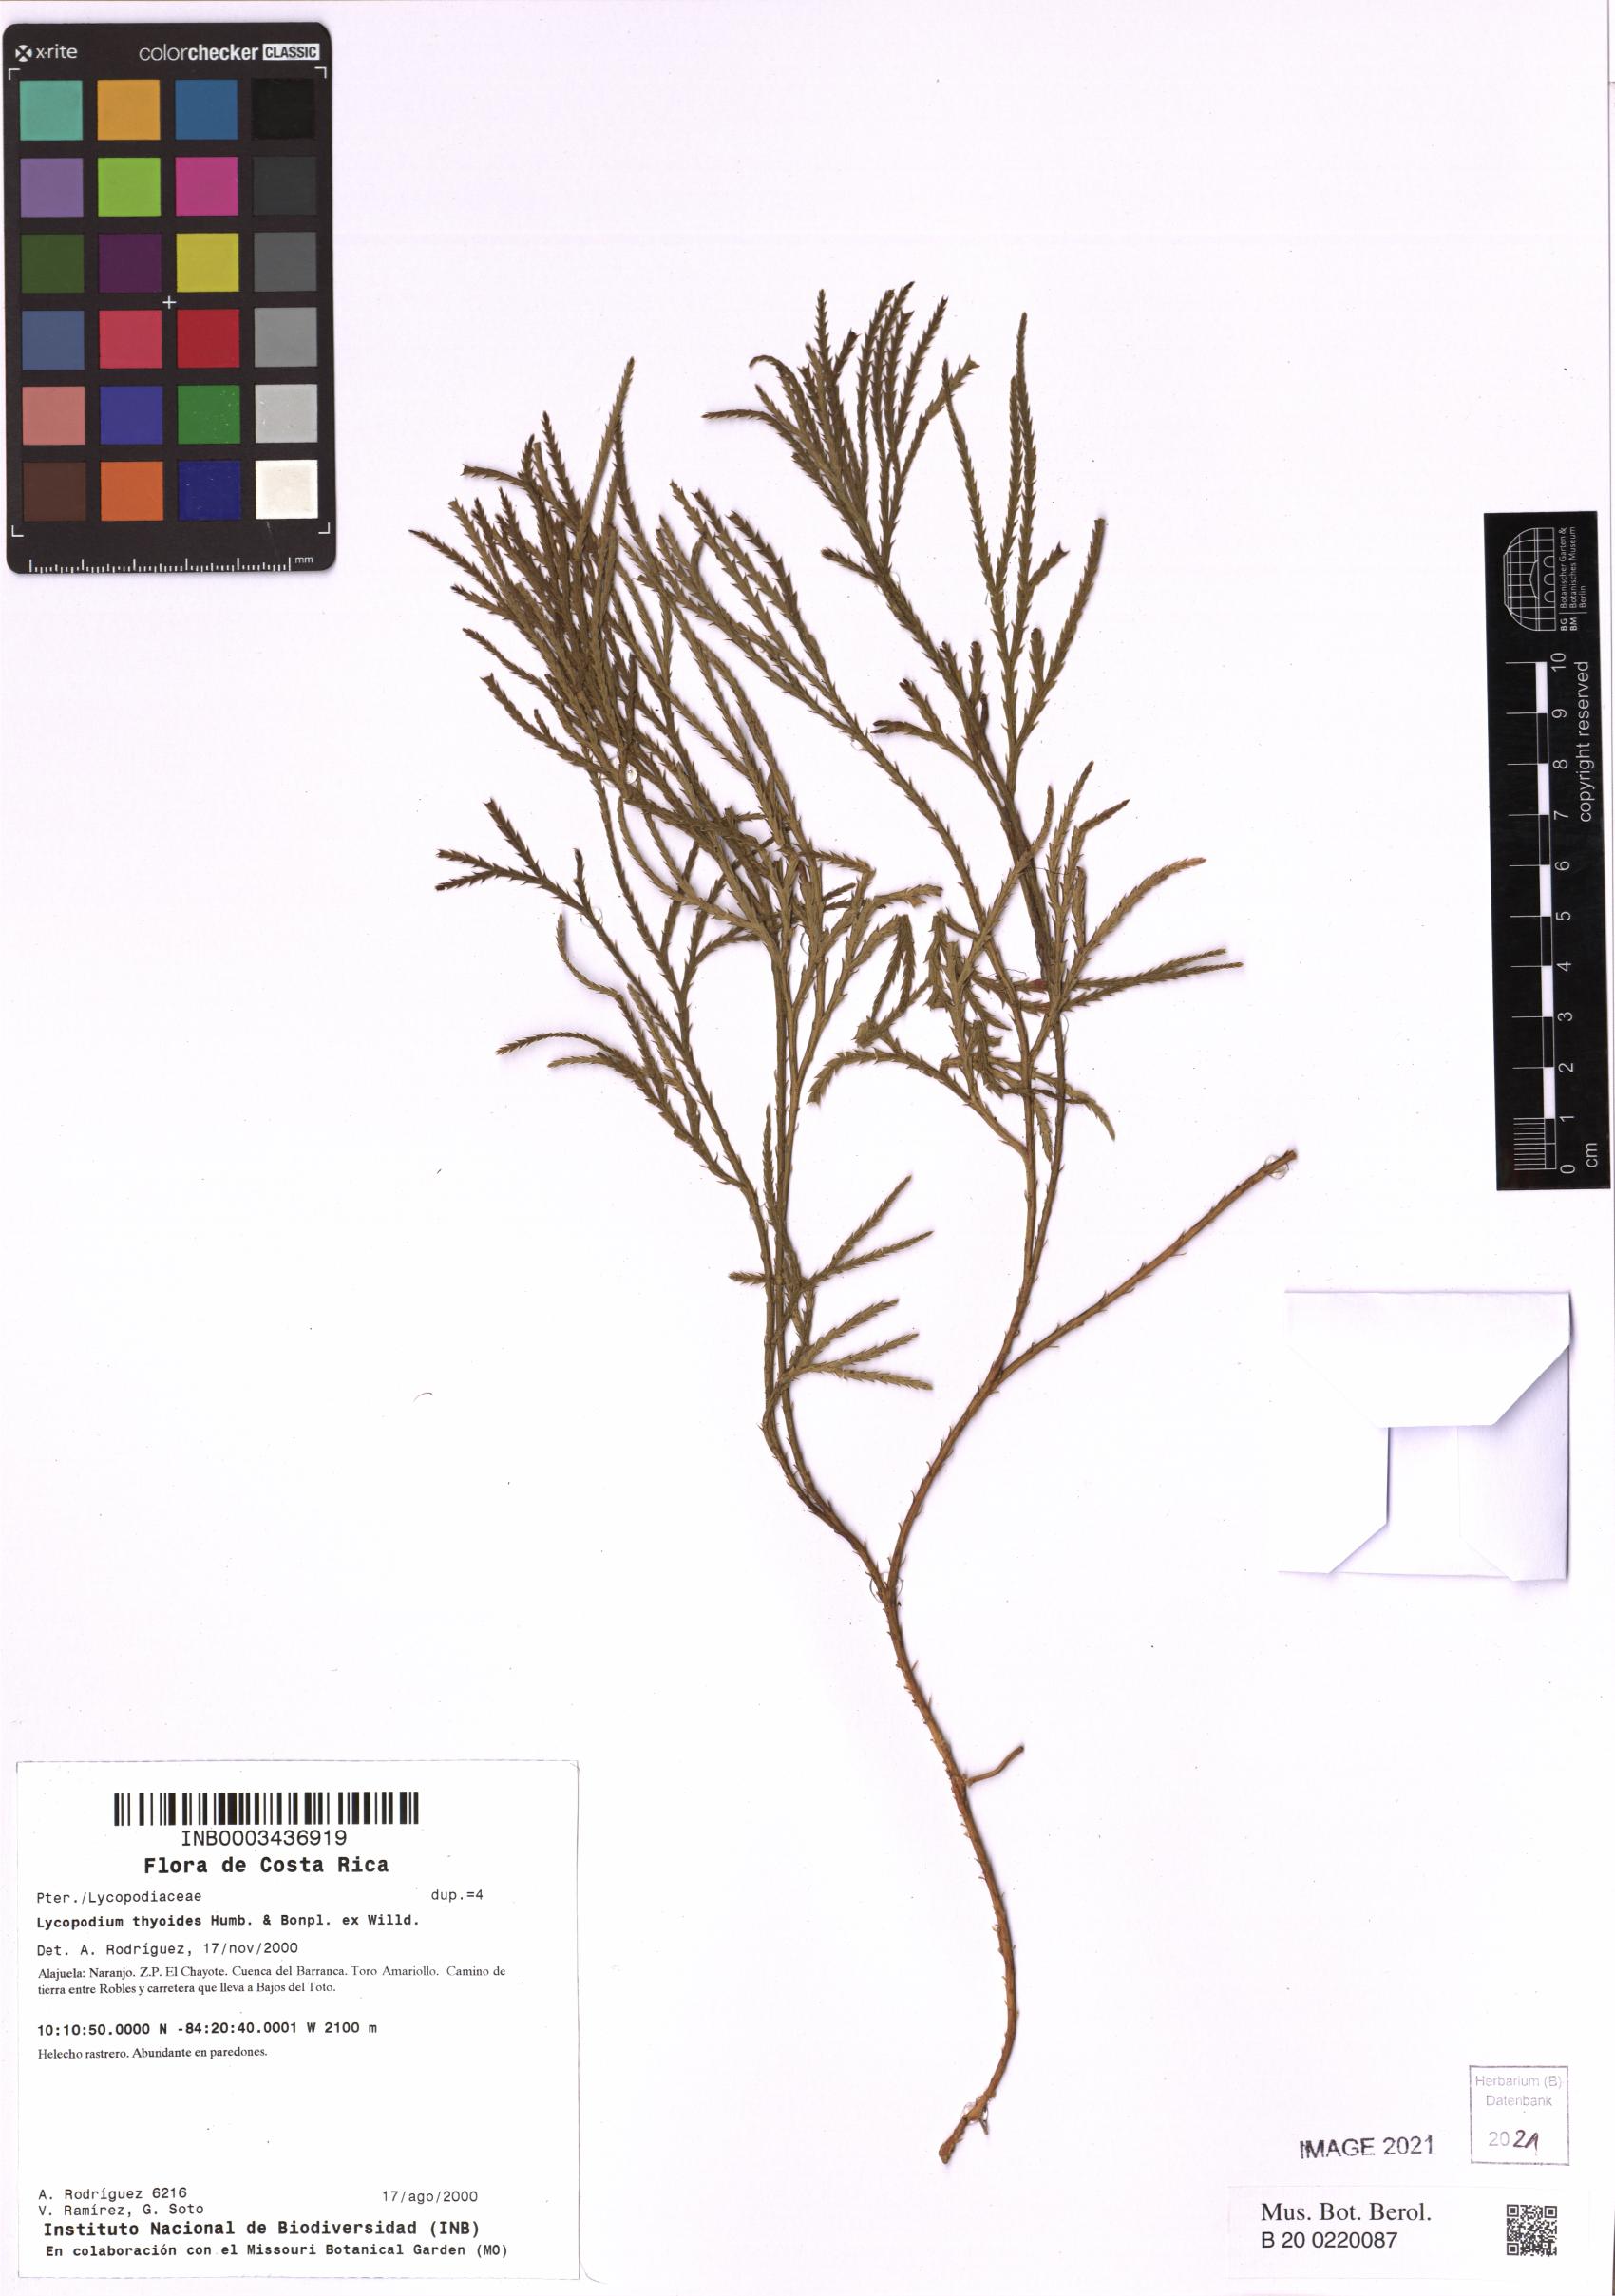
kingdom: Plantae
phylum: Tracheophyta
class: Lycopodiopsida
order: Lycopodiales
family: Lycopodiaceae
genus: Diphasiastrum
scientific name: Diphasiastrum thyoides
